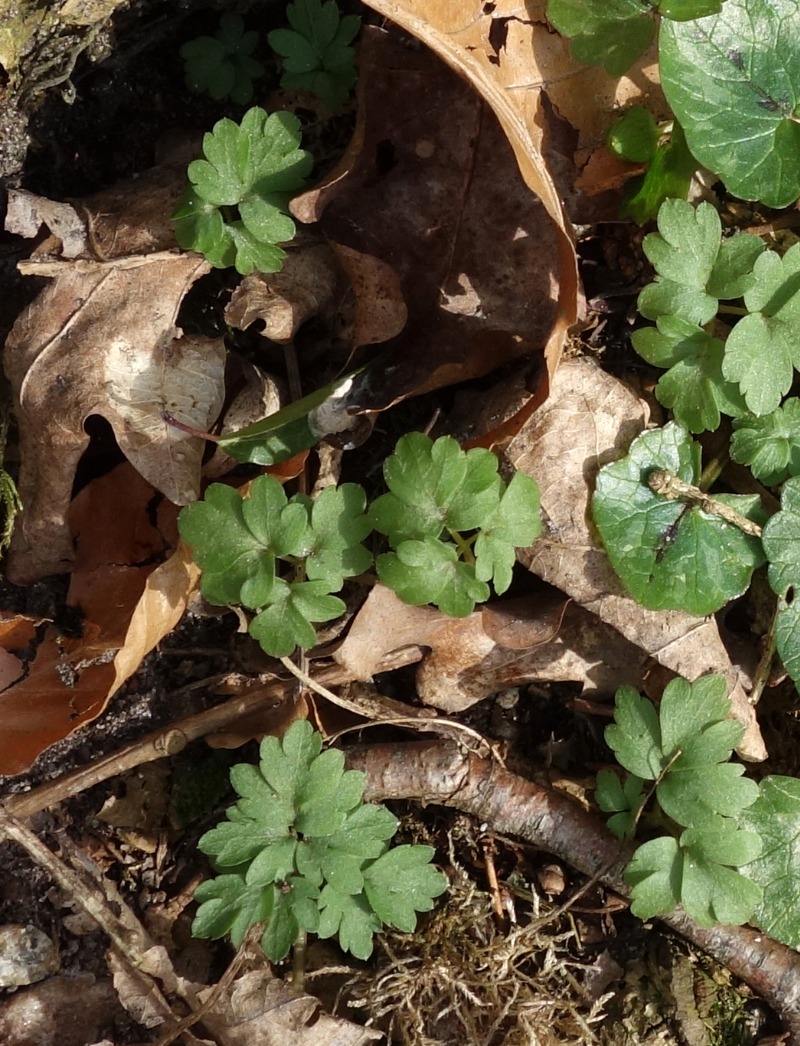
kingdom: Plantae
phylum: Tracheophyta
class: Magnoliopsida
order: Dipsacales
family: Viburnaceae
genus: Adoxa
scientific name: Adoxa moschatellina
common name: Desmerurt
